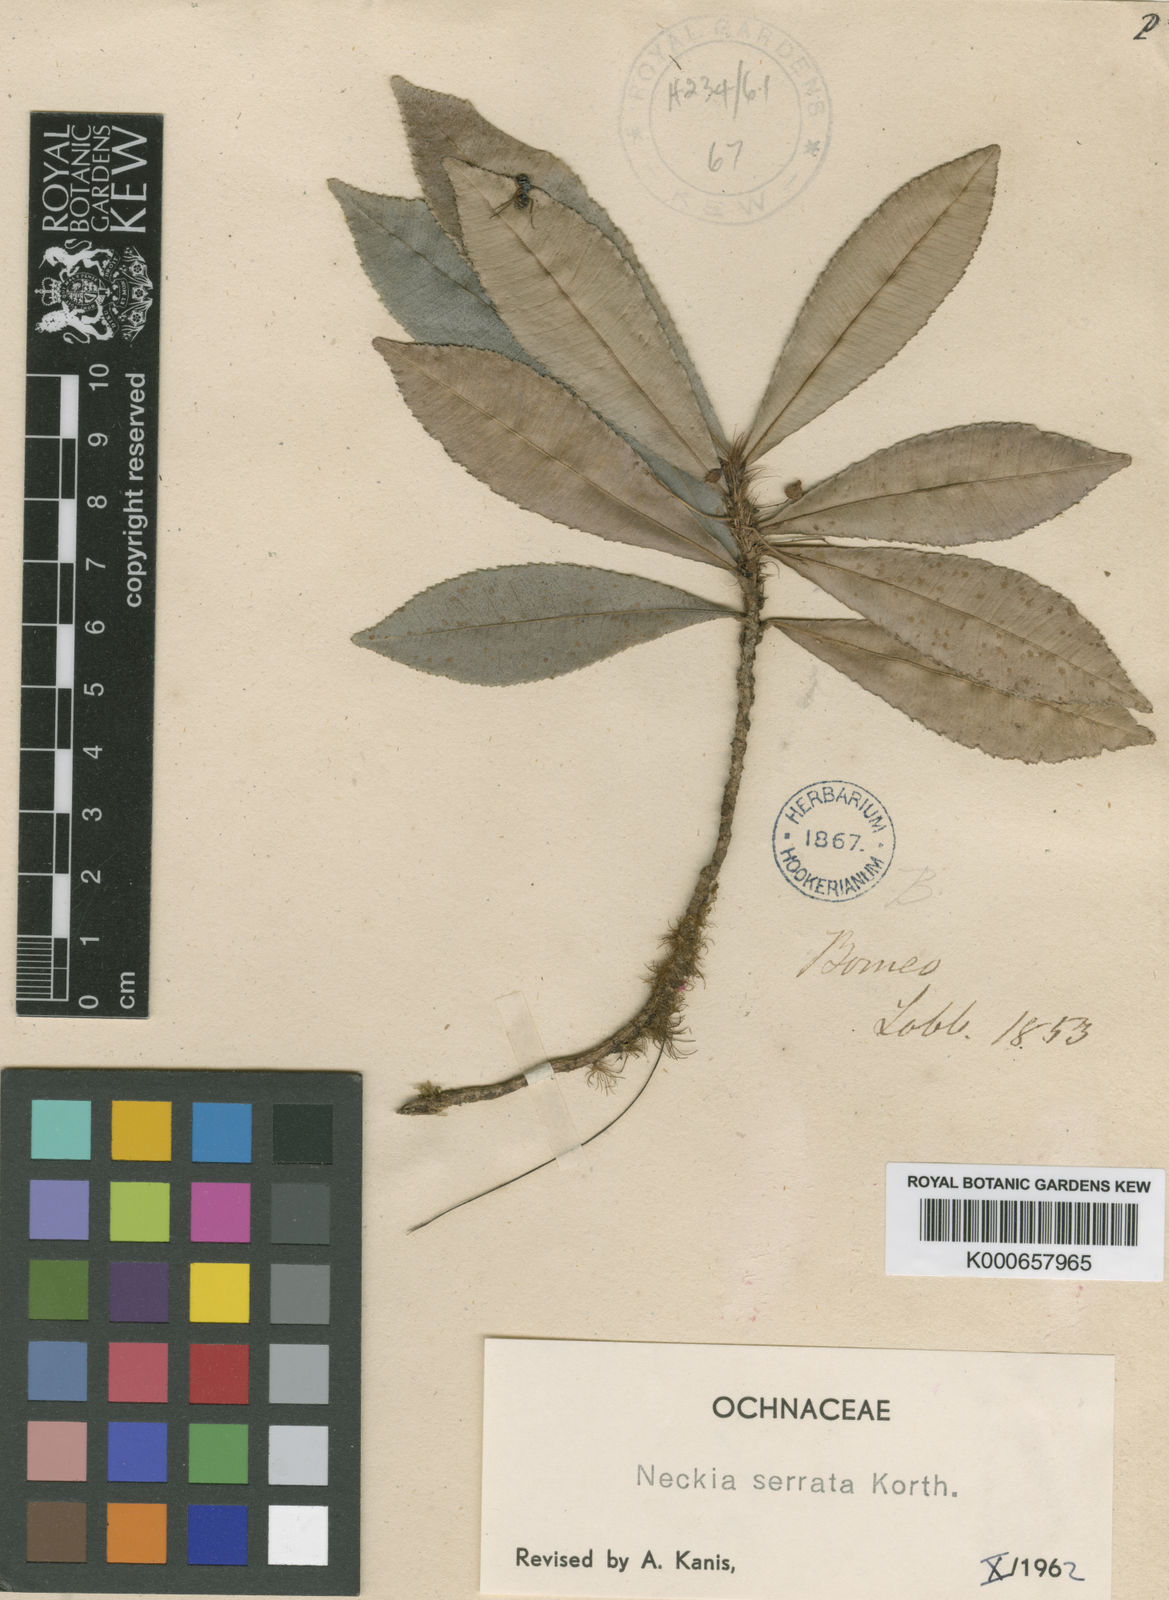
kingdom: Plantae
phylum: Tracheophyta
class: Magnoliopsida
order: Malpighiales
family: Ochnaceae
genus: Neckia
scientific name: Neckia serrata
